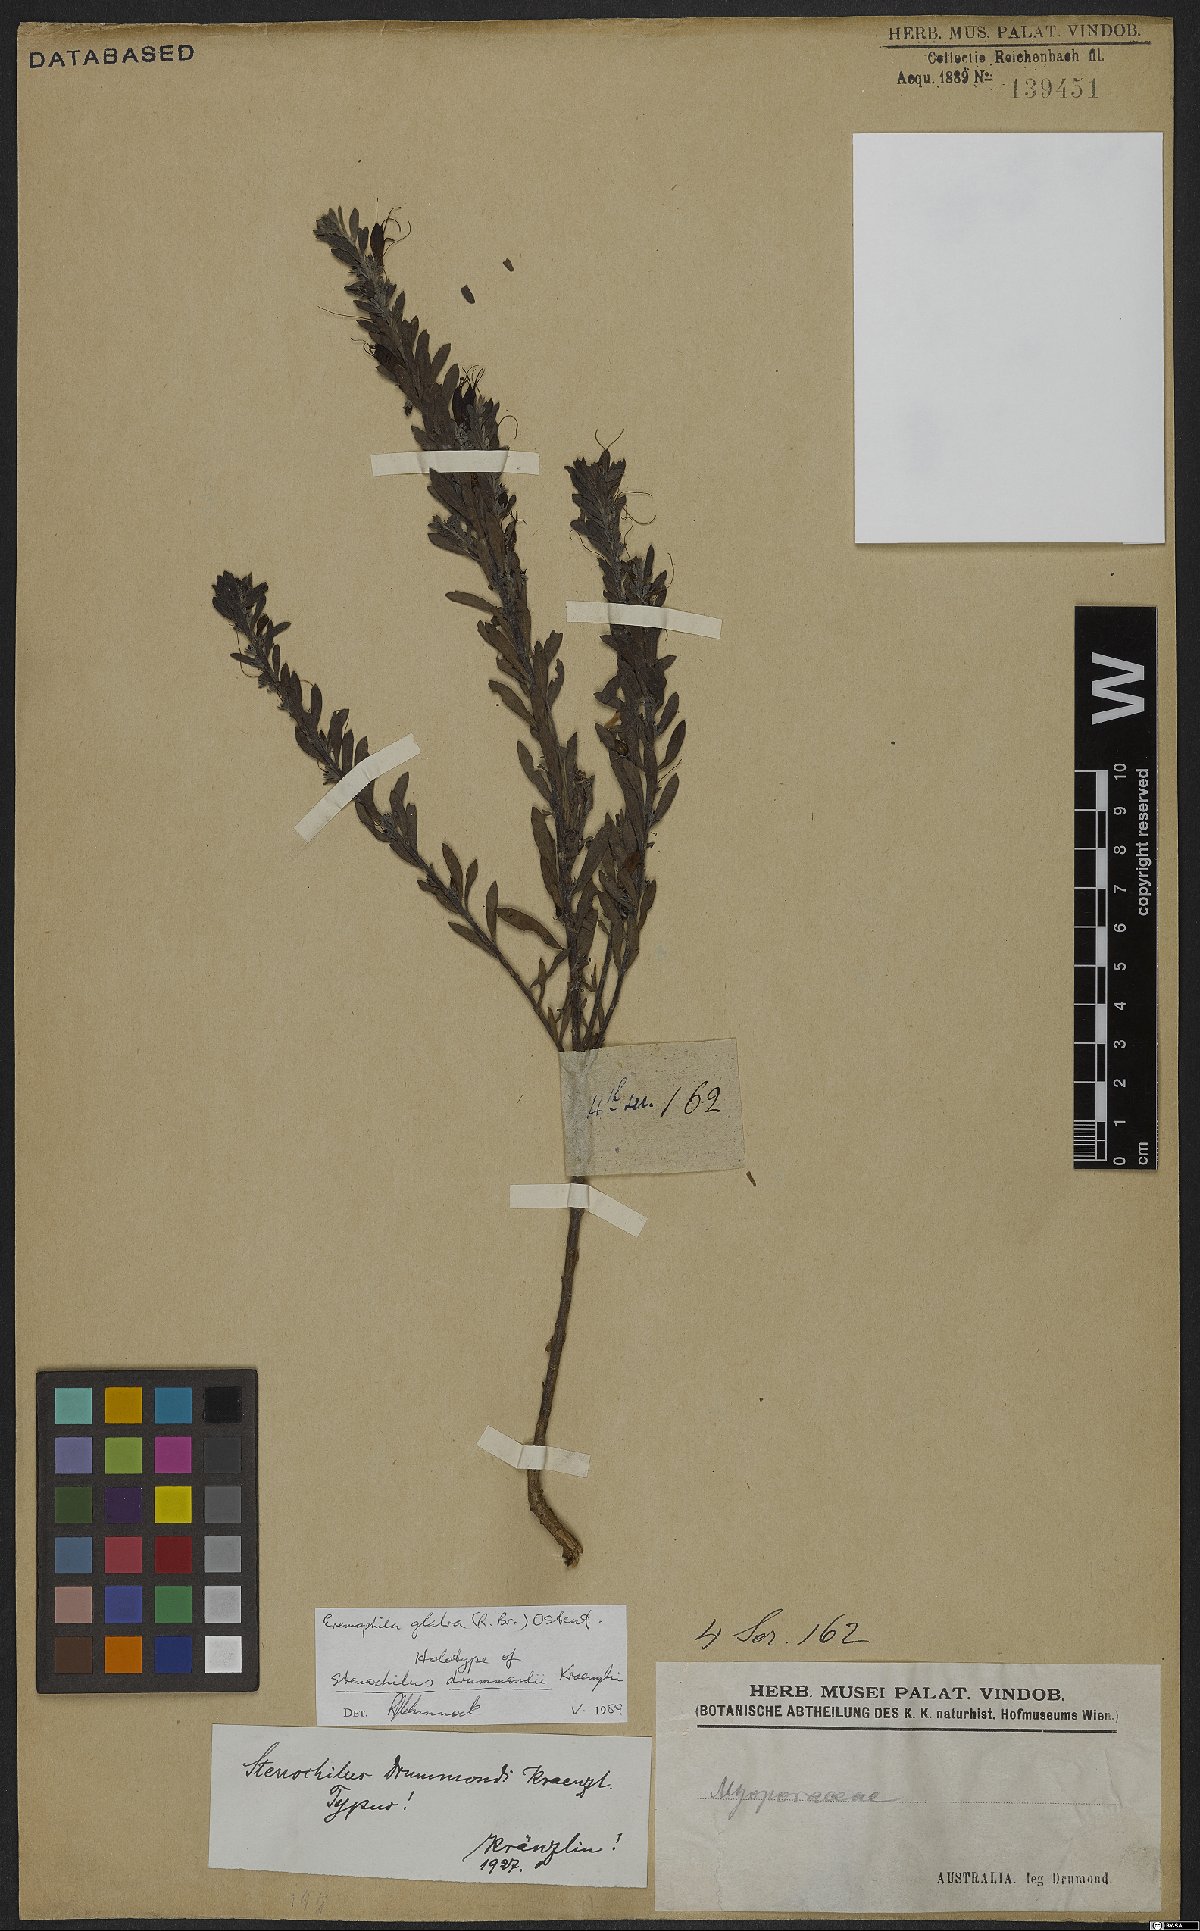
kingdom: Plantae
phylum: Tracheophyta
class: Magnoliopsida
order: Lamiales
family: Scrophulariaceae
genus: Eremophila
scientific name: Eremophila glabra
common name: Black-fuchsia
